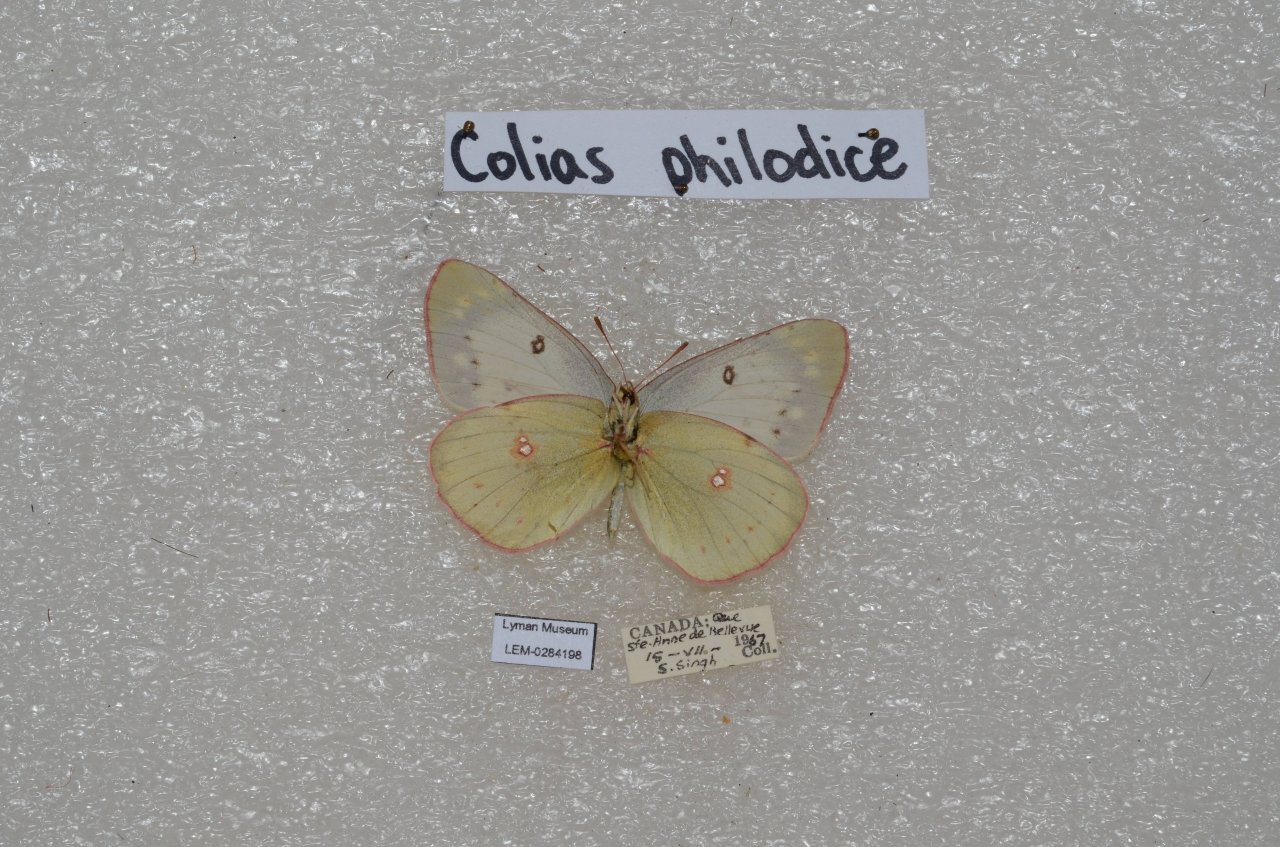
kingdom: Animalia
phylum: Arthropoda
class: Insecta
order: Lepidoptera
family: Pieridae
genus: Colias
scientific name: Colias philodice
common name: Clouded Sulphur
